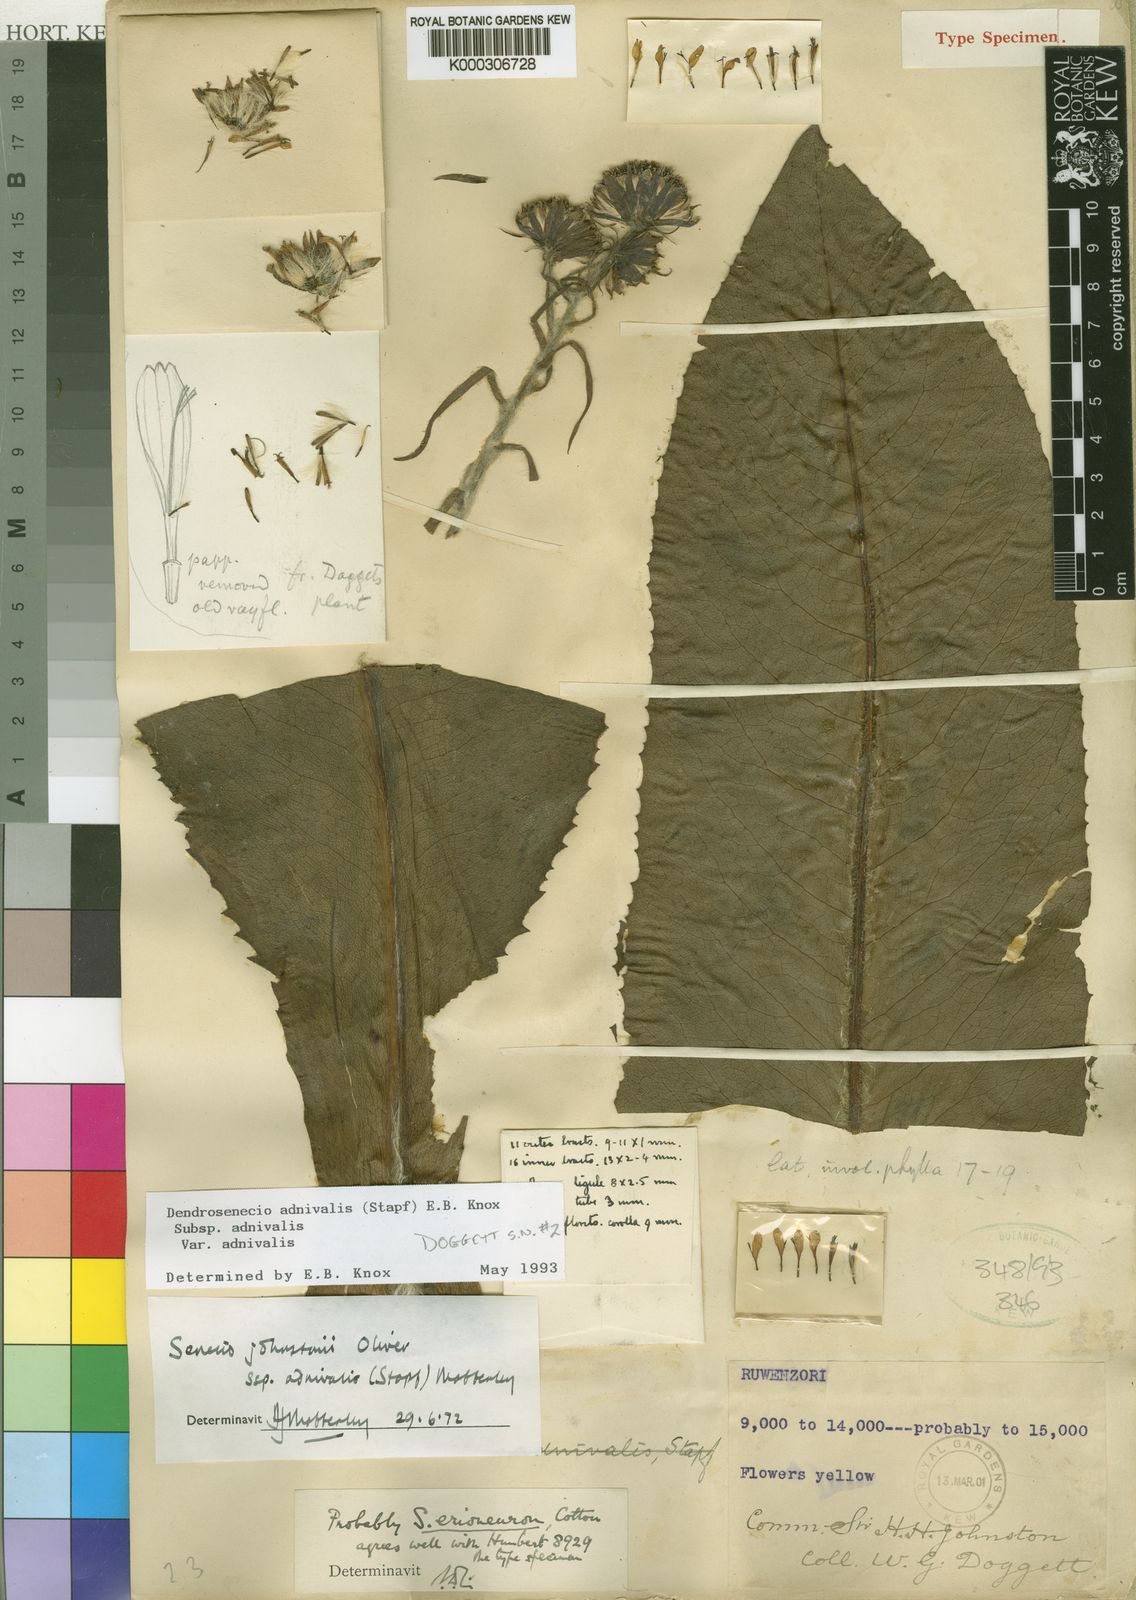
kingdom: Plantae
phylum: Tracheophyta
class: Magnoliopsida
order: Asterales
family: Asteraceae
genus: Dendrosenecio
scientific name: Dendrosenecio adnivalis
